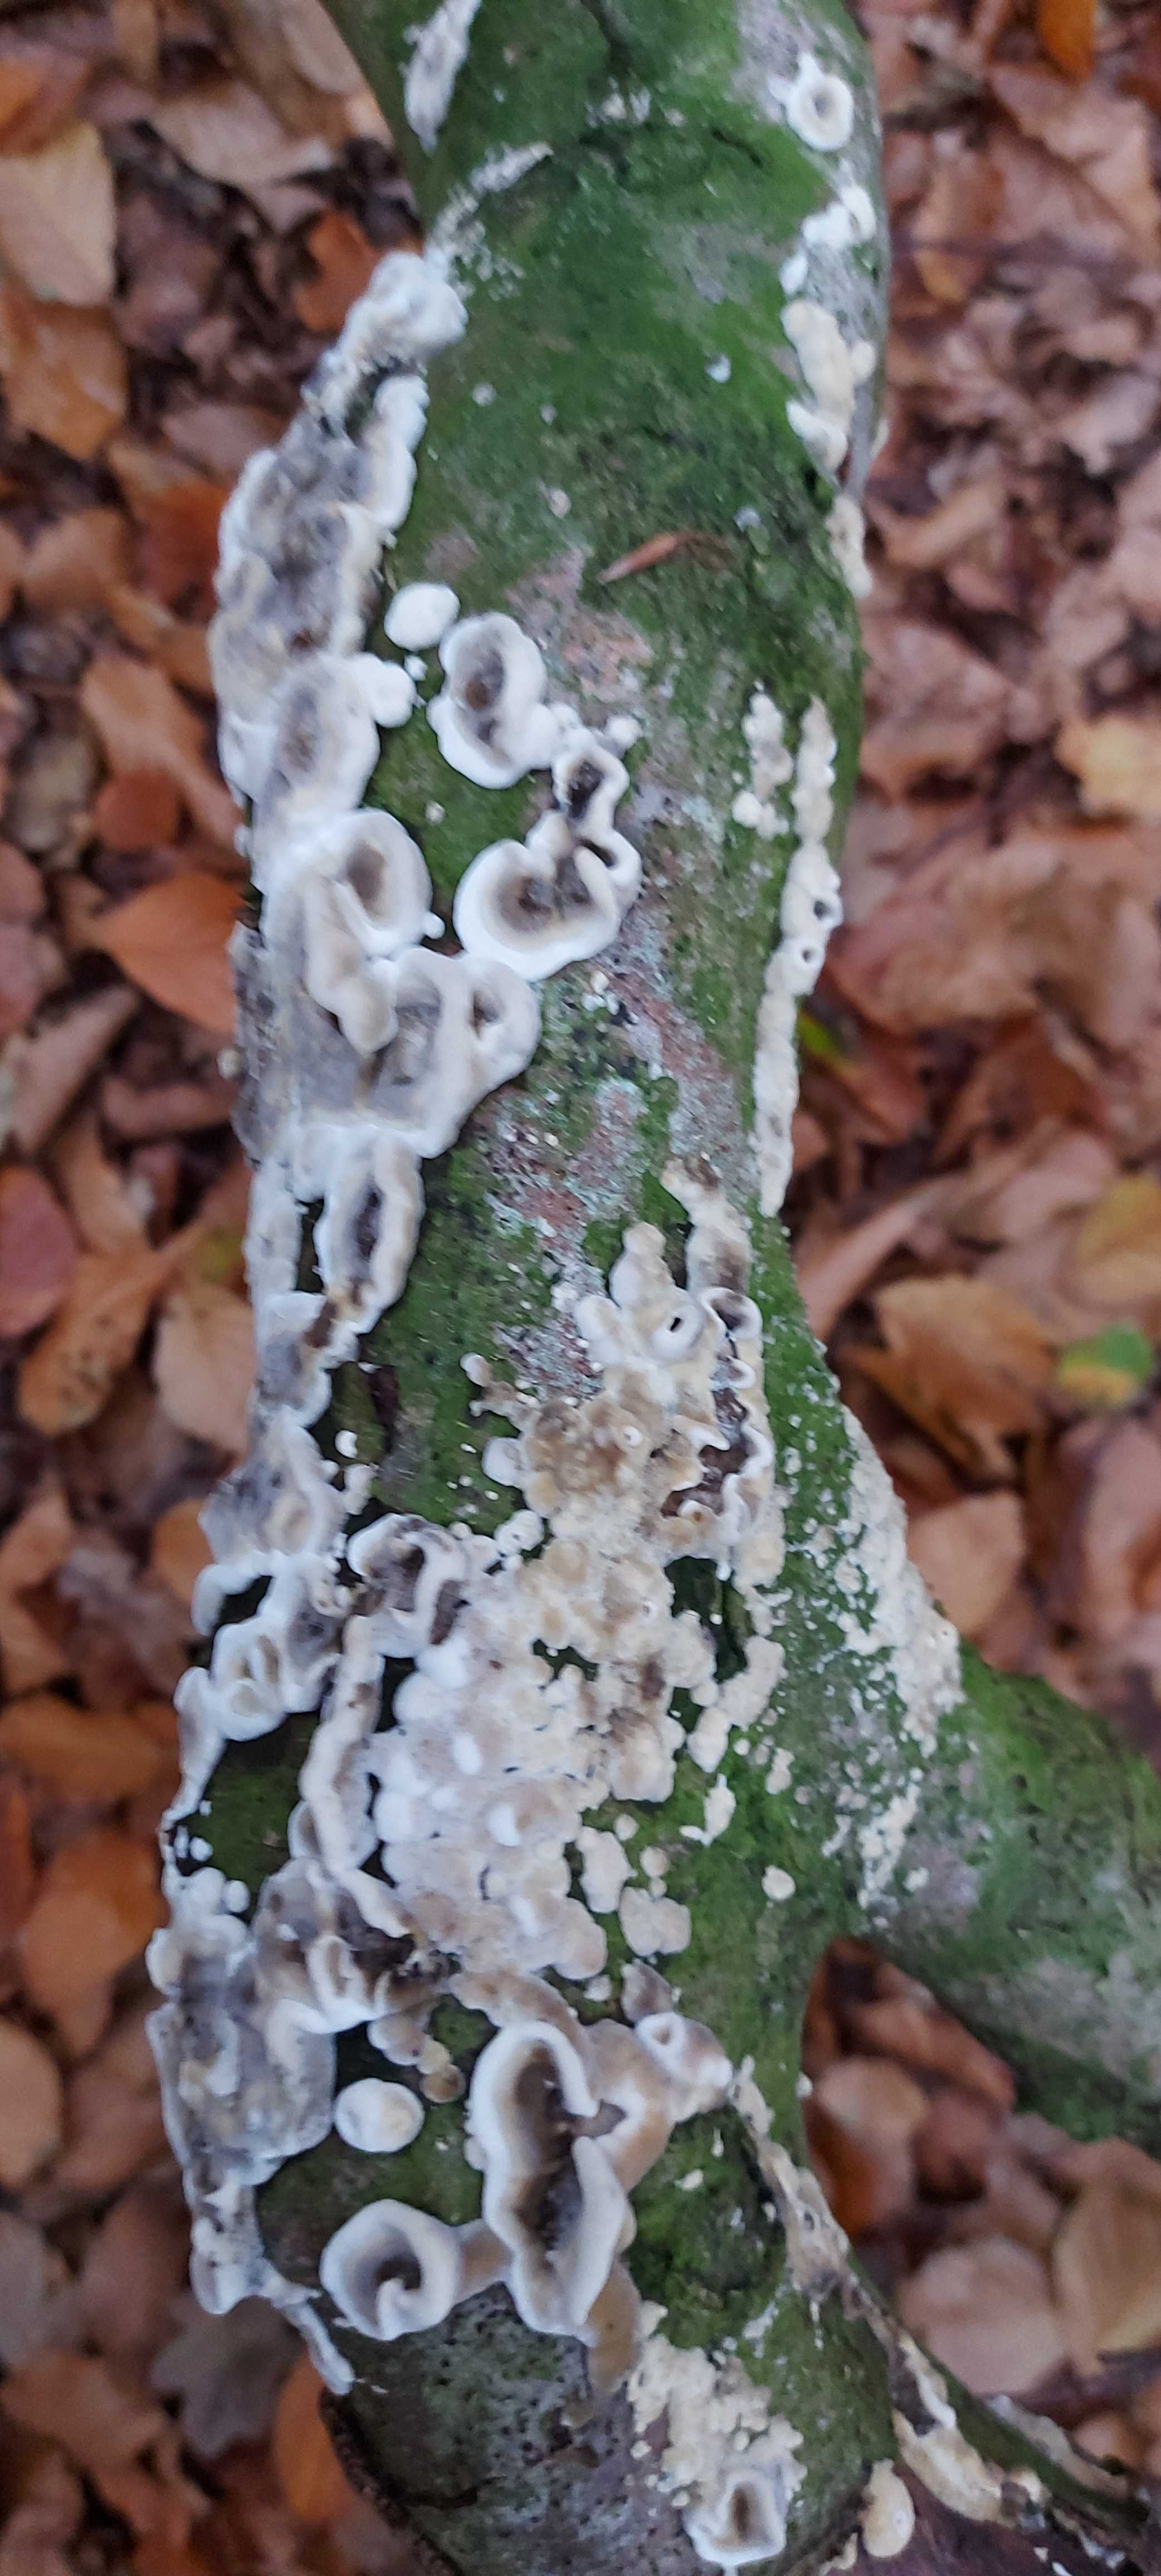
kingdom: Fungi
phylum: Basidiomycota
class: Agaricomycetes
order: Polyporales
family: Phanerochaetaceae
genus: Bjerkandera
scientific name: Bjerkandera adusta
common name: sveden sodporesvamp
